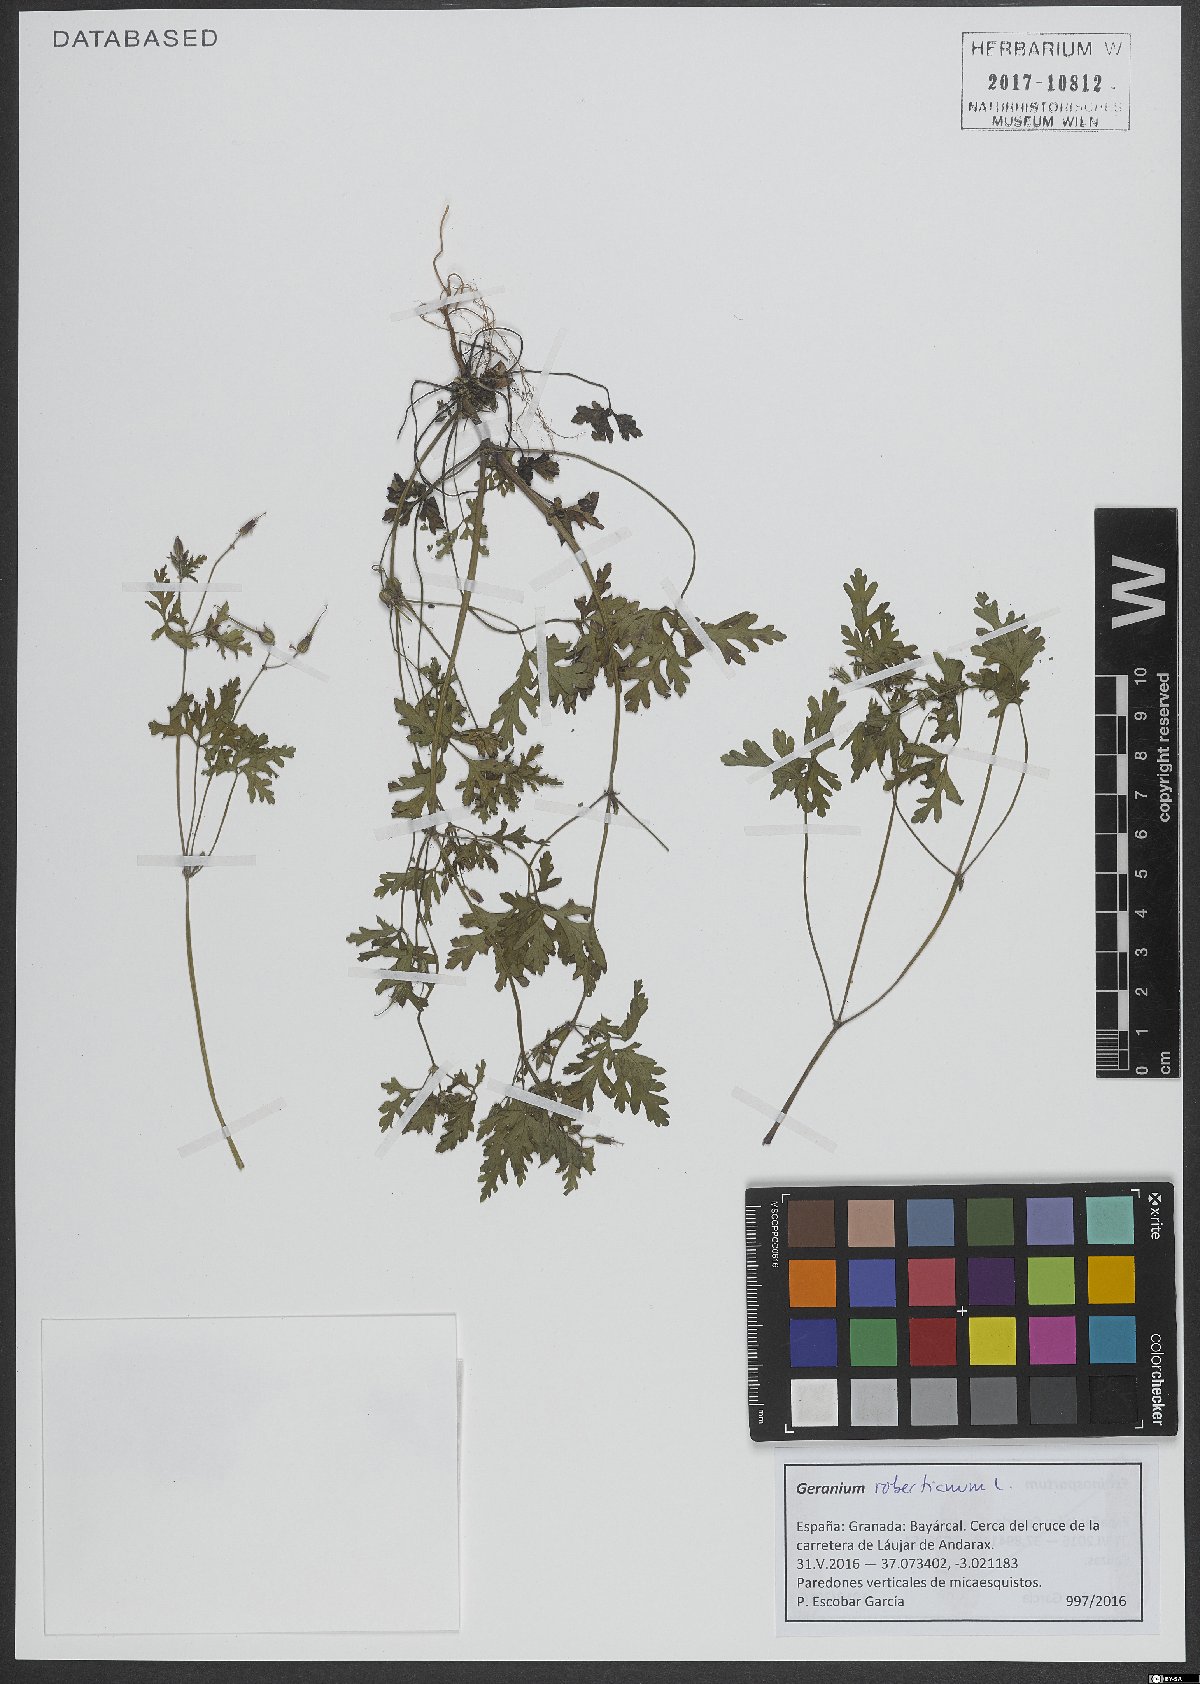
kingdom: Plantae
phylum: Tracheophyta
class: Magnoliopsida
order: Geraniales
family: Geraniaceae
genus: Geranium
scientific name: Geranium robertianum
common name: Herb-robert
